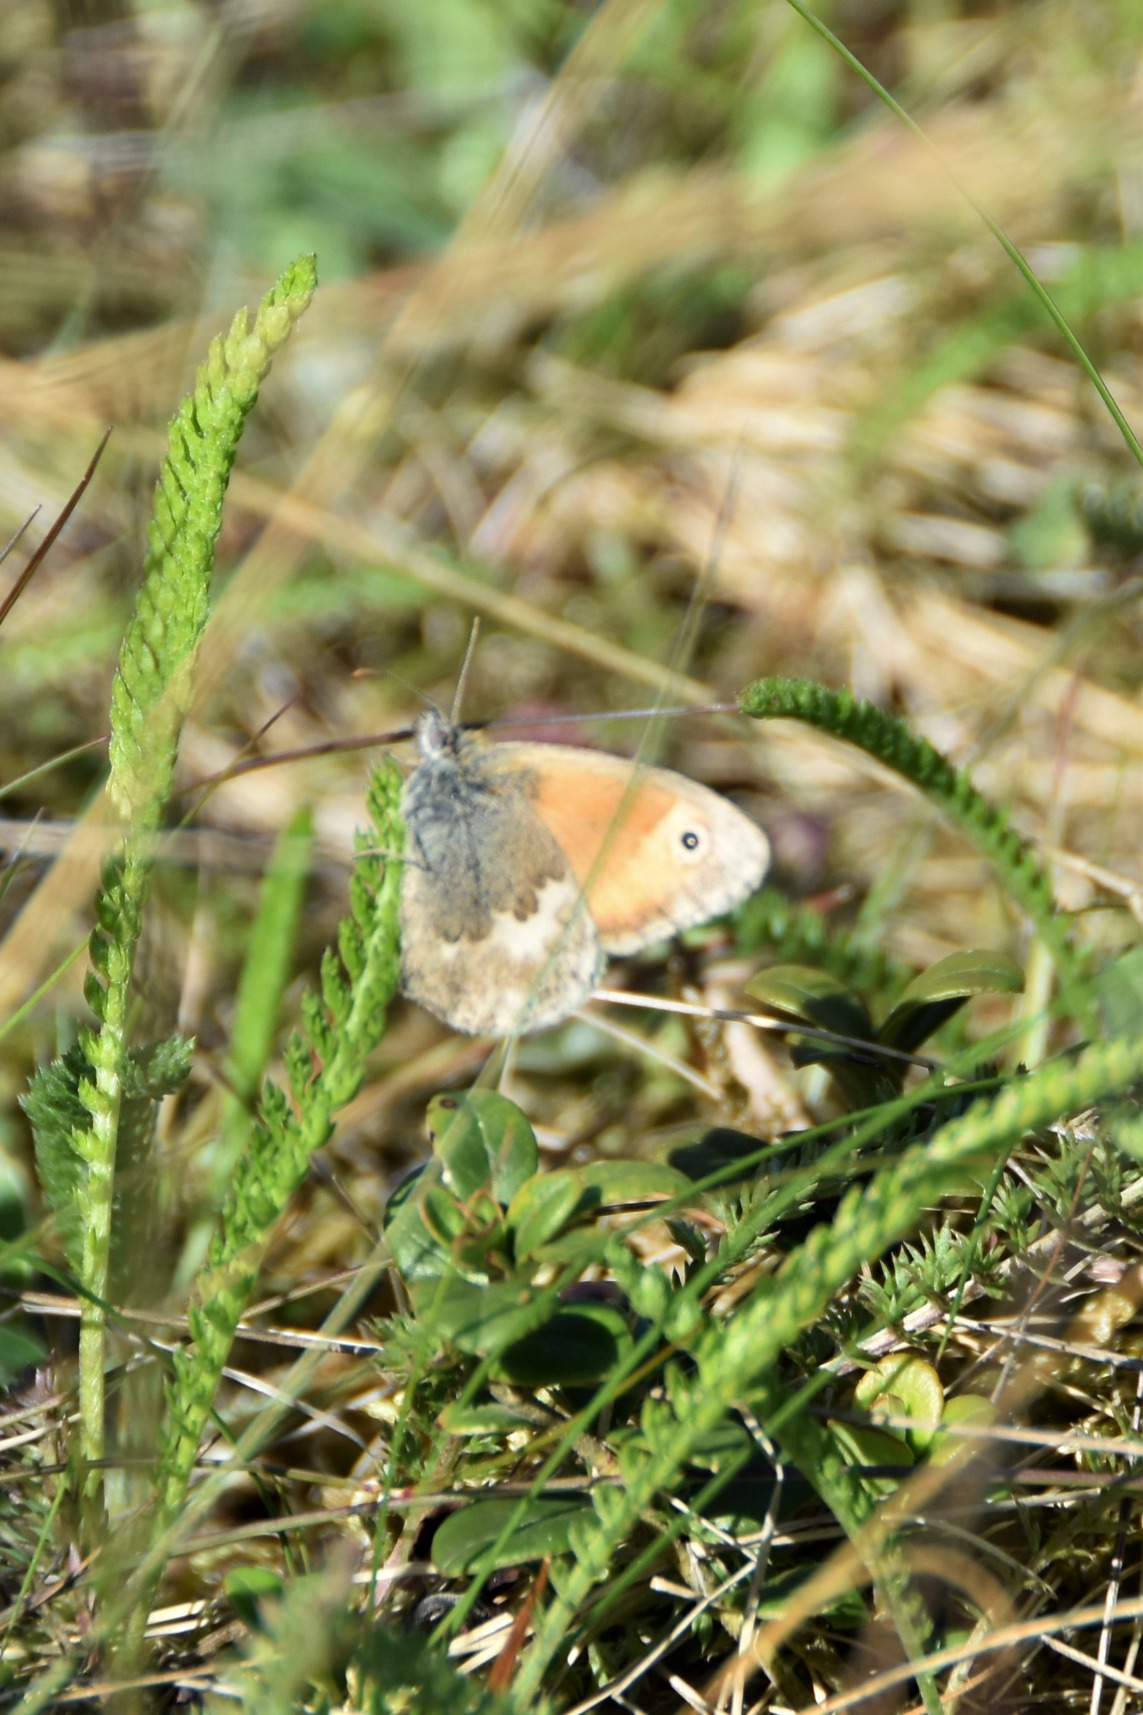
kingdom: Animalia
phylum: Arthropoda
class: Insecta
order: Lepidoptera
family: Nymphalidae
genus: Coenonympha
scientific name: Coenonympha pamphilus
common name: Okkergul randøje
